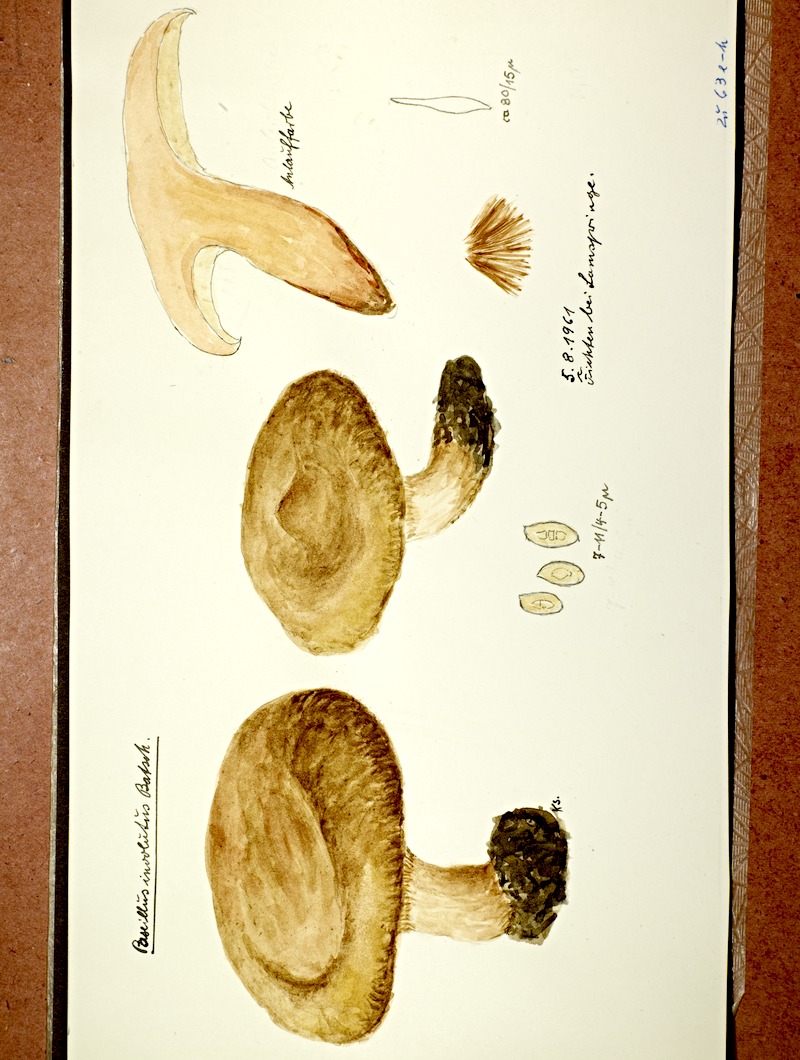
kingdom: Fungi
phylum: Basidiomycota
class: Agaricomycetes
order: Boletales
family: Paxillaceae
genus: Paxillus
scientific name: Paxillus involutus
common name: Brown roll rim
